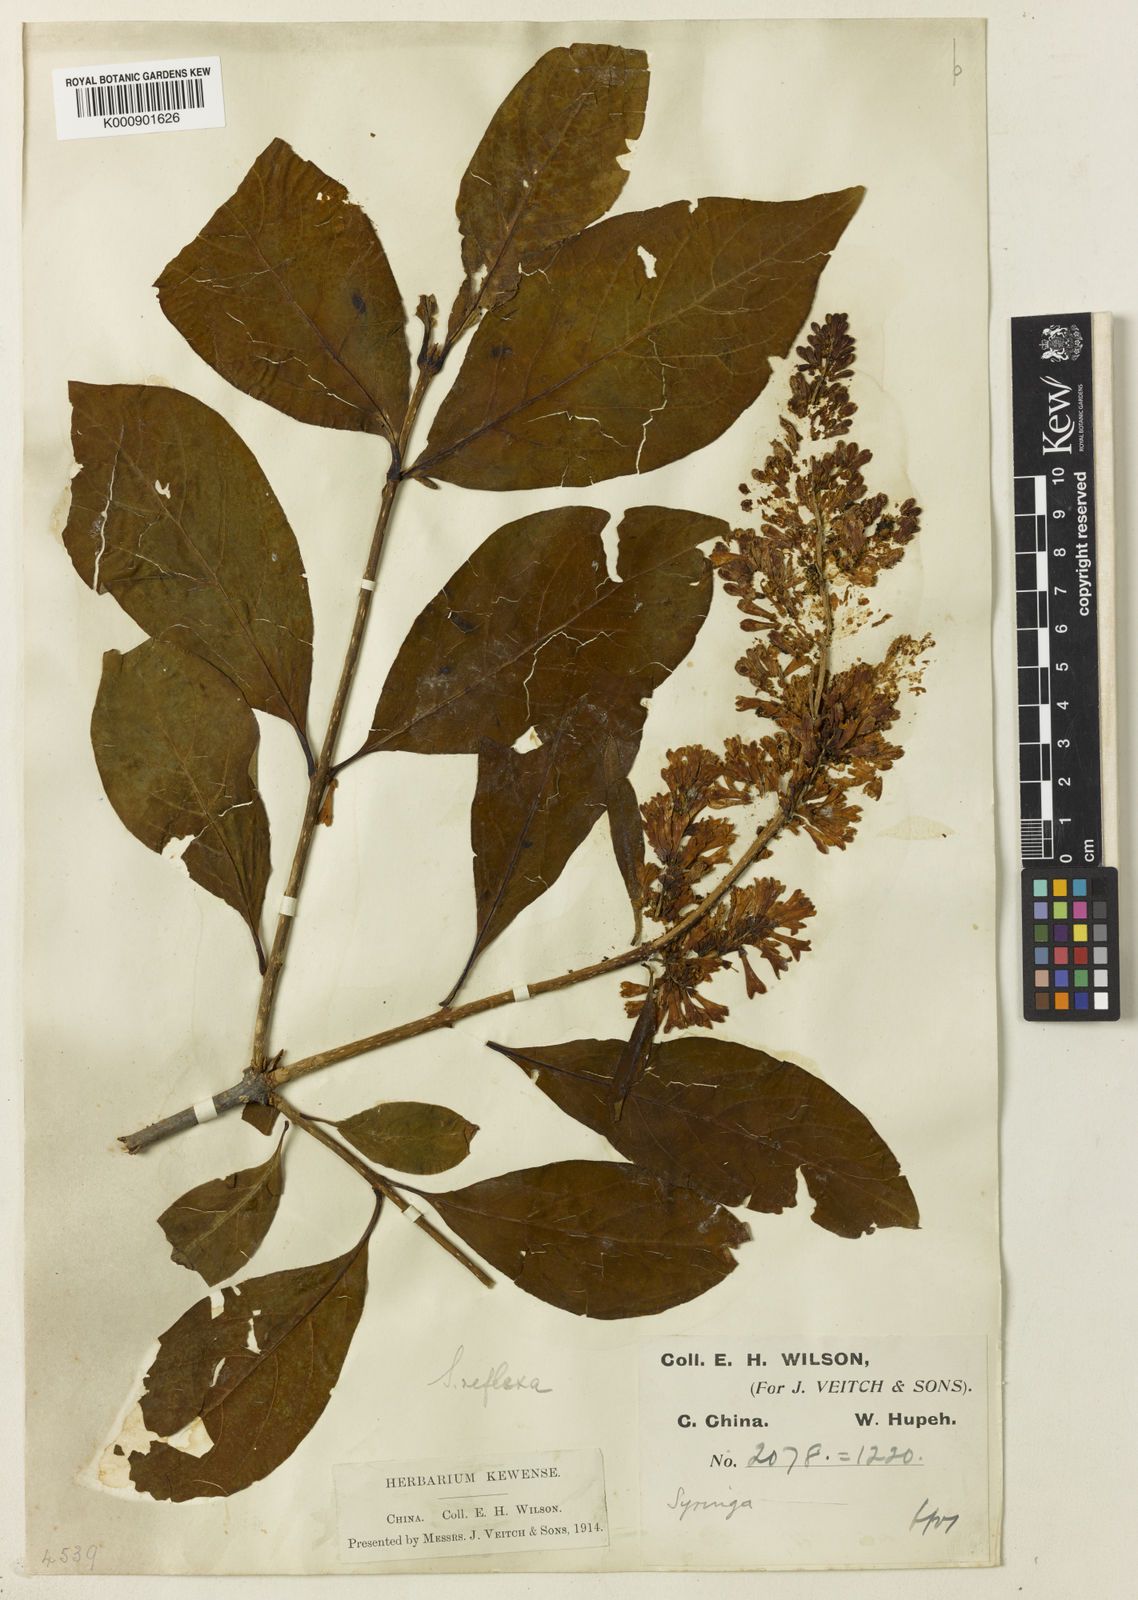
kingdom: Plantae
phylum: Tracheophyta
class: Magnoliopsida
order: Lamiales
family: Oleaceae
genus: Syringa
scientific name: Syringa komarowii
